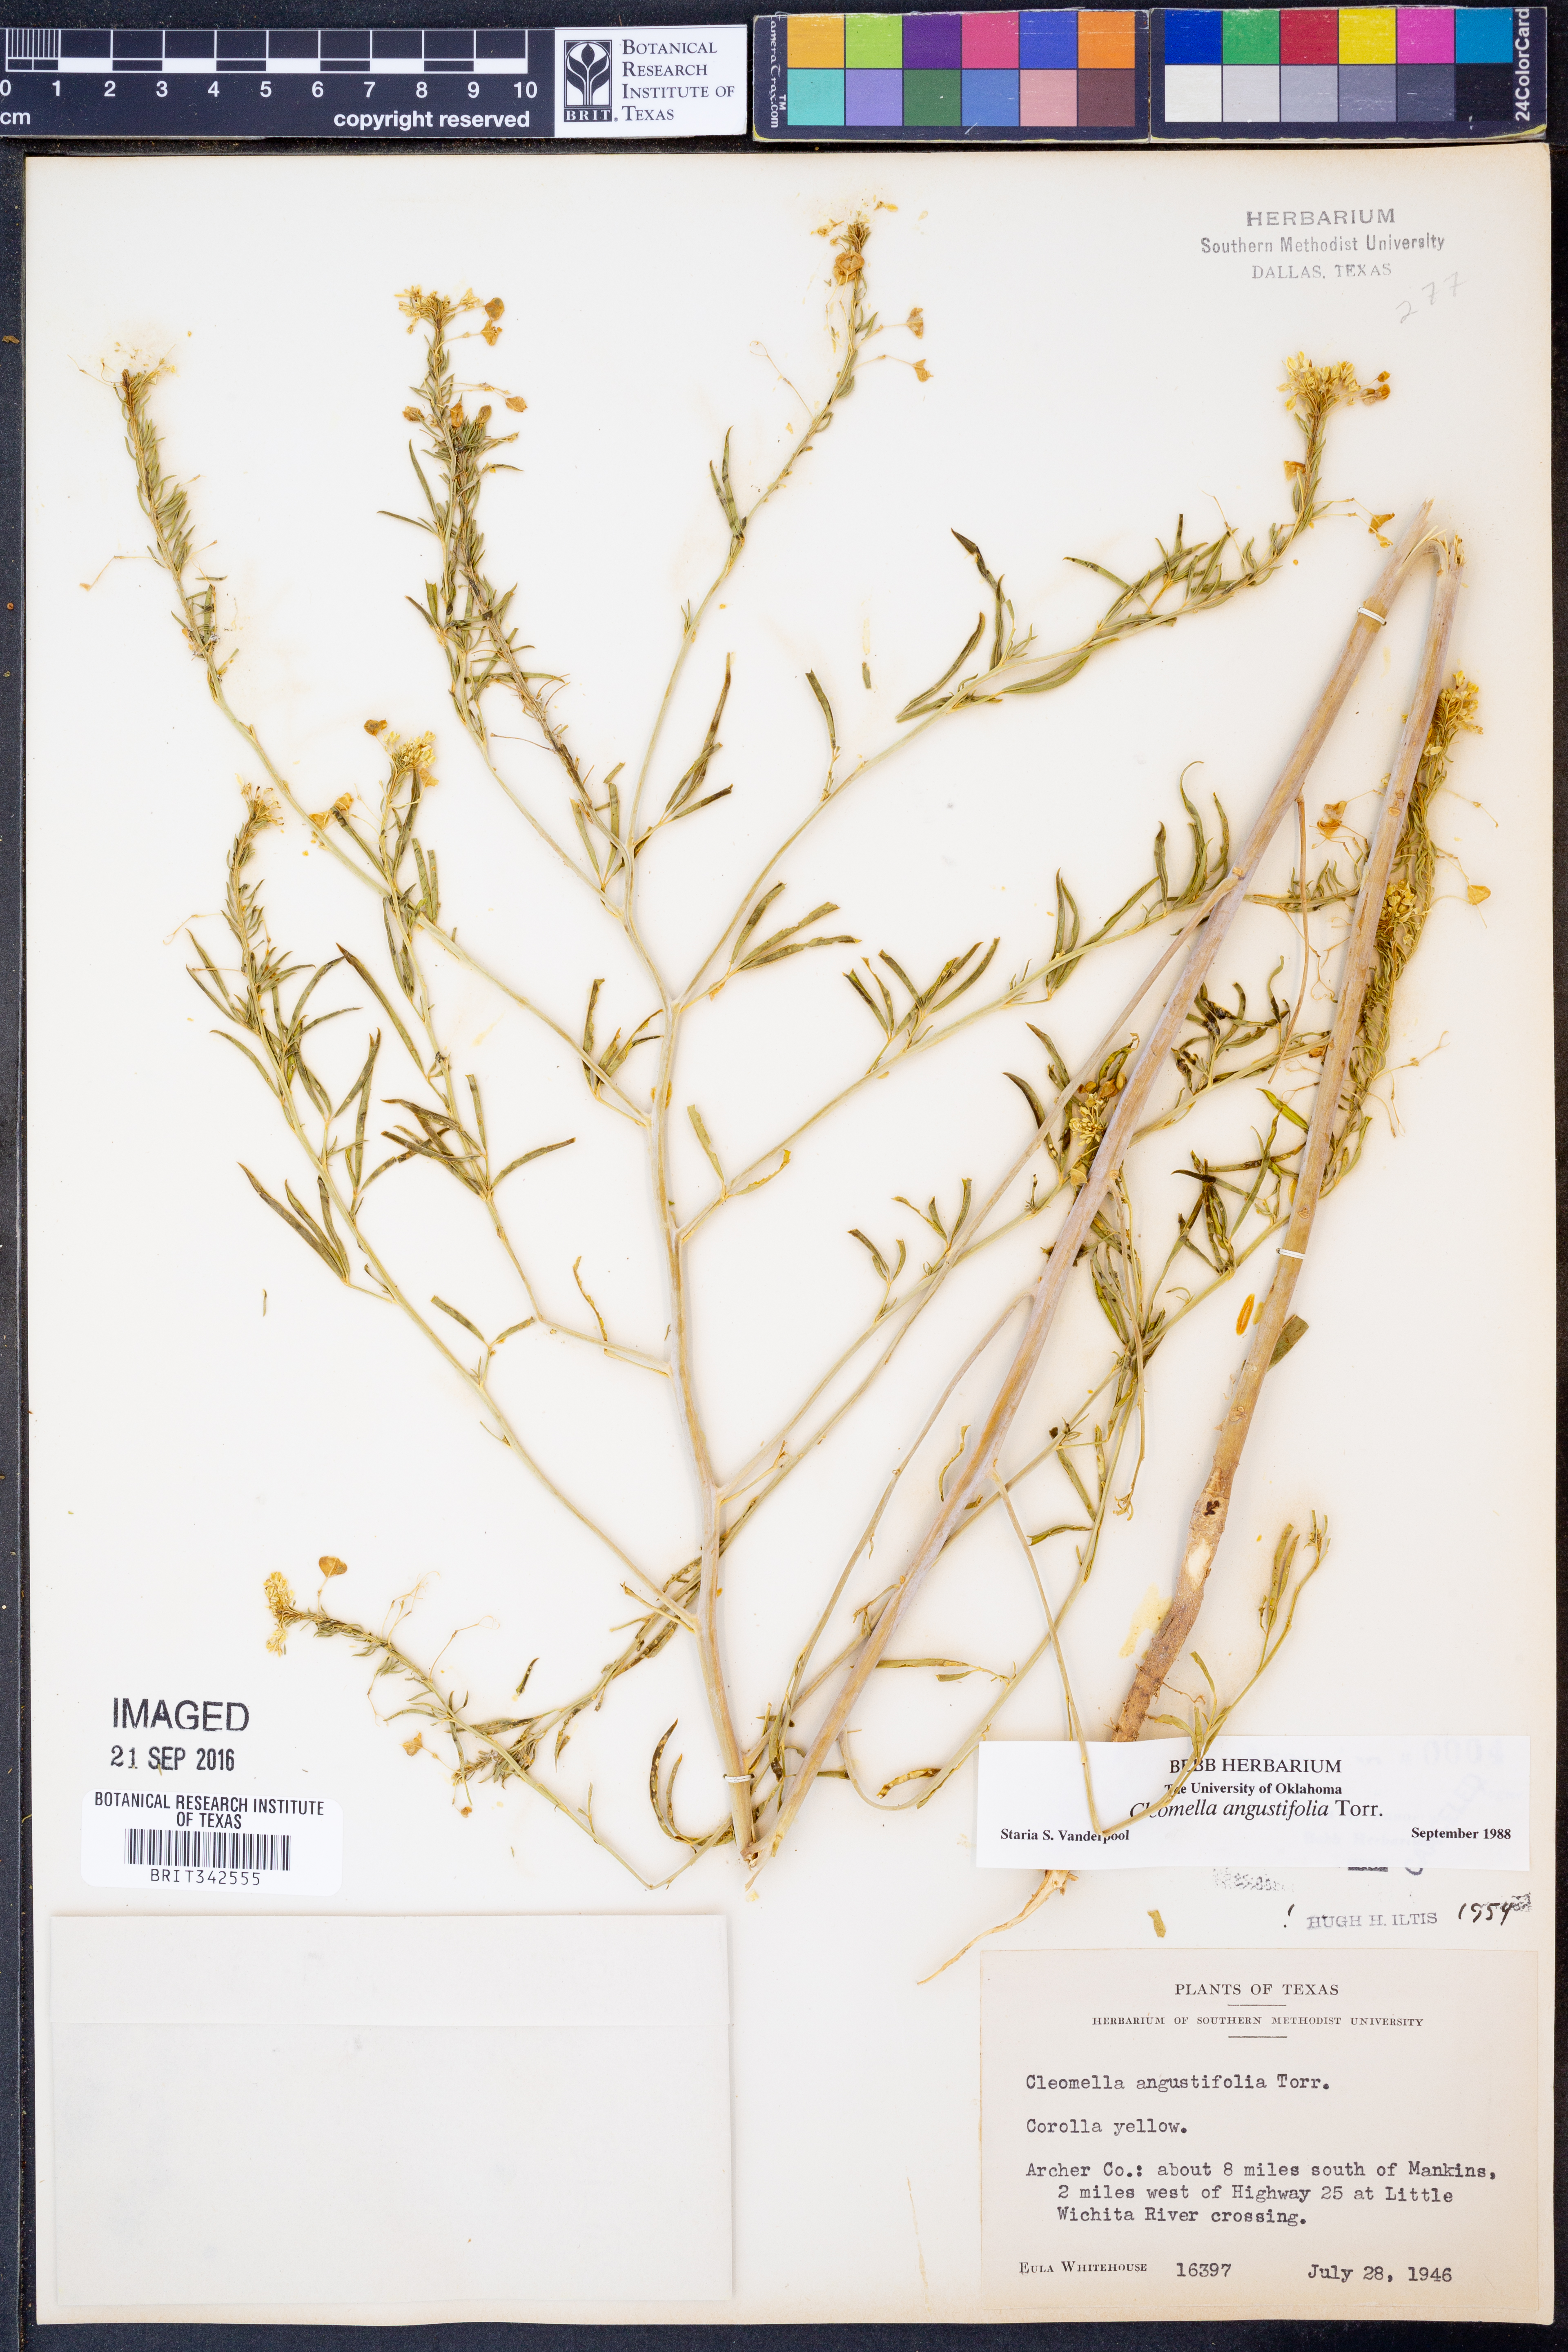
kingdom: Plantae
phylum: Tracheophyta
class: Magnoliopsida
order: Brassicales
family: Cleomaceae
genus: Cleomella
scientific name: Cleomella angustifolia
